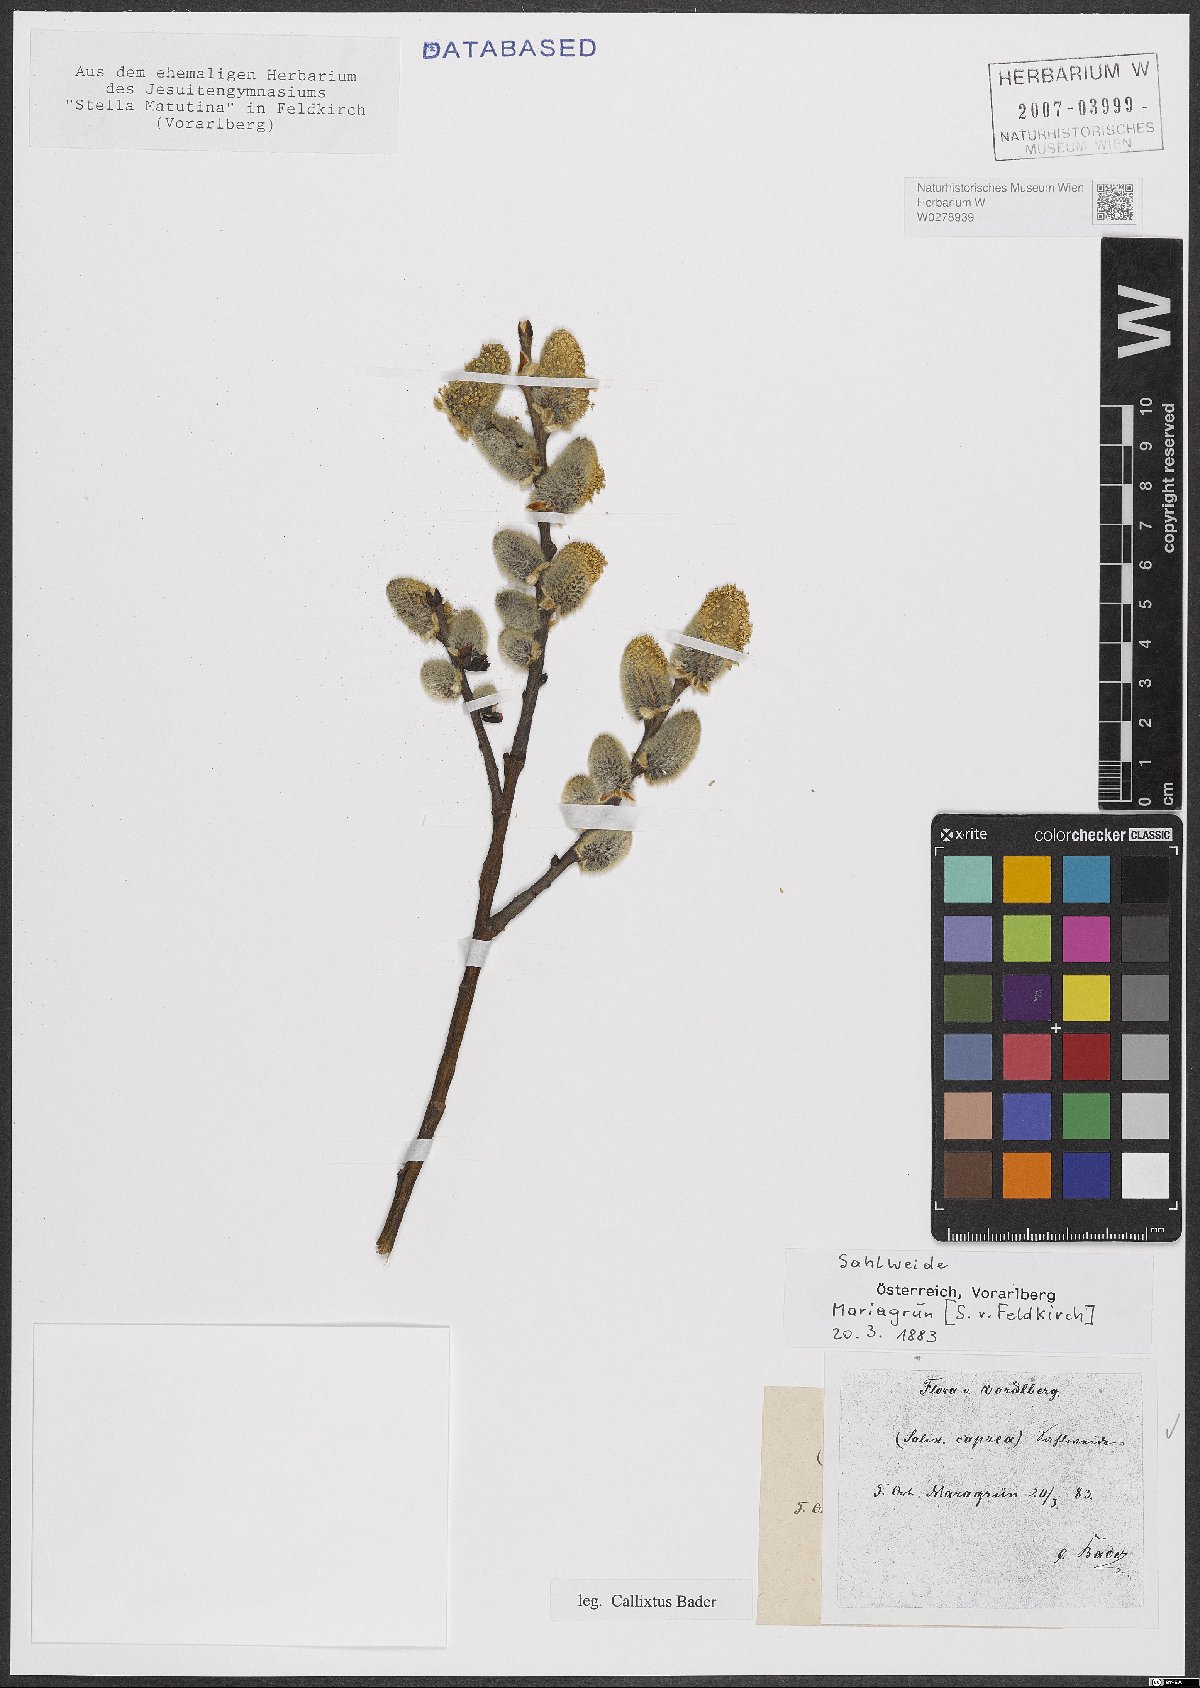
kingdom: Plantae
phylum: Tracheophyta
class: Magnoliopsida
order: Malpighiales
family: Salicaceae
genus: Salix
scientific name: Salix caprea
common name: Goat willow
